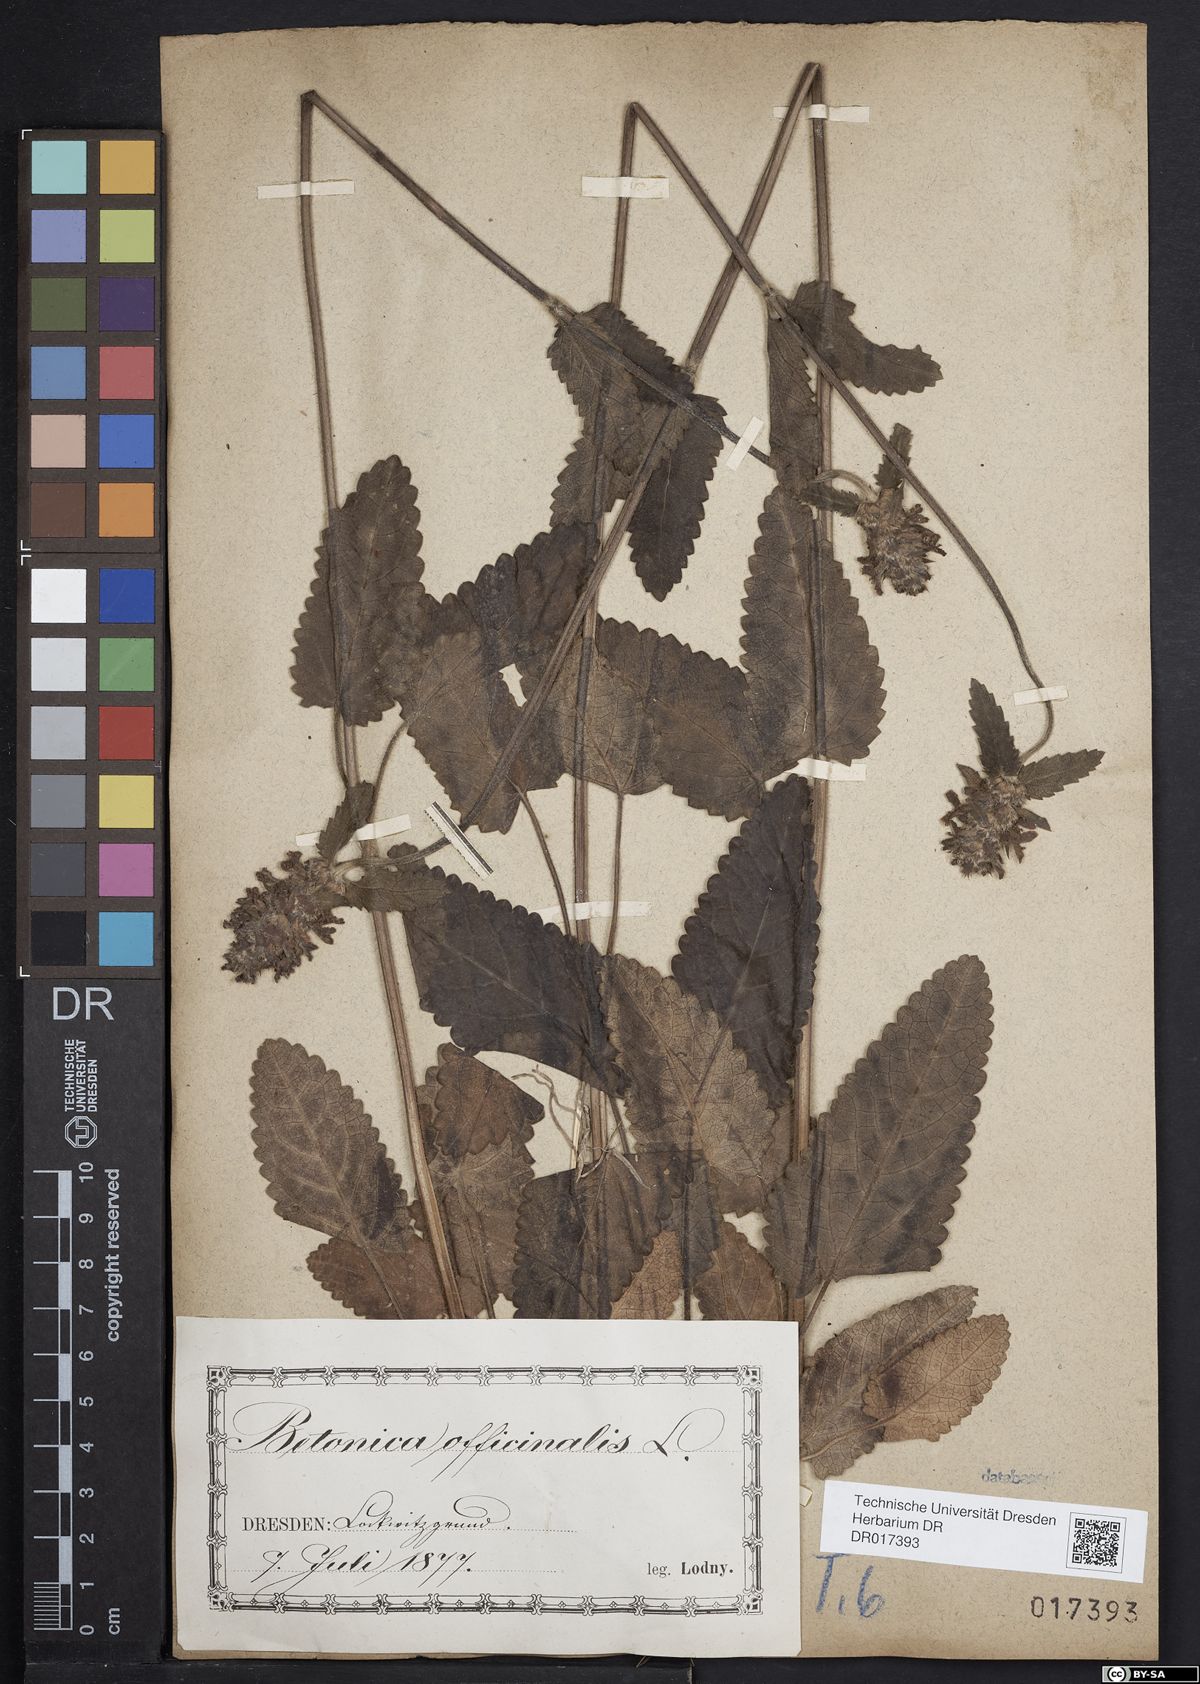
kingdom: Plantae
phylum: Tracheophyta
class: Magnoliopsida
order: Lamiales
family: Lamiaceae
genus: Betonica
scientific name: Betonica officinalis
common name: Bishop's-wort
